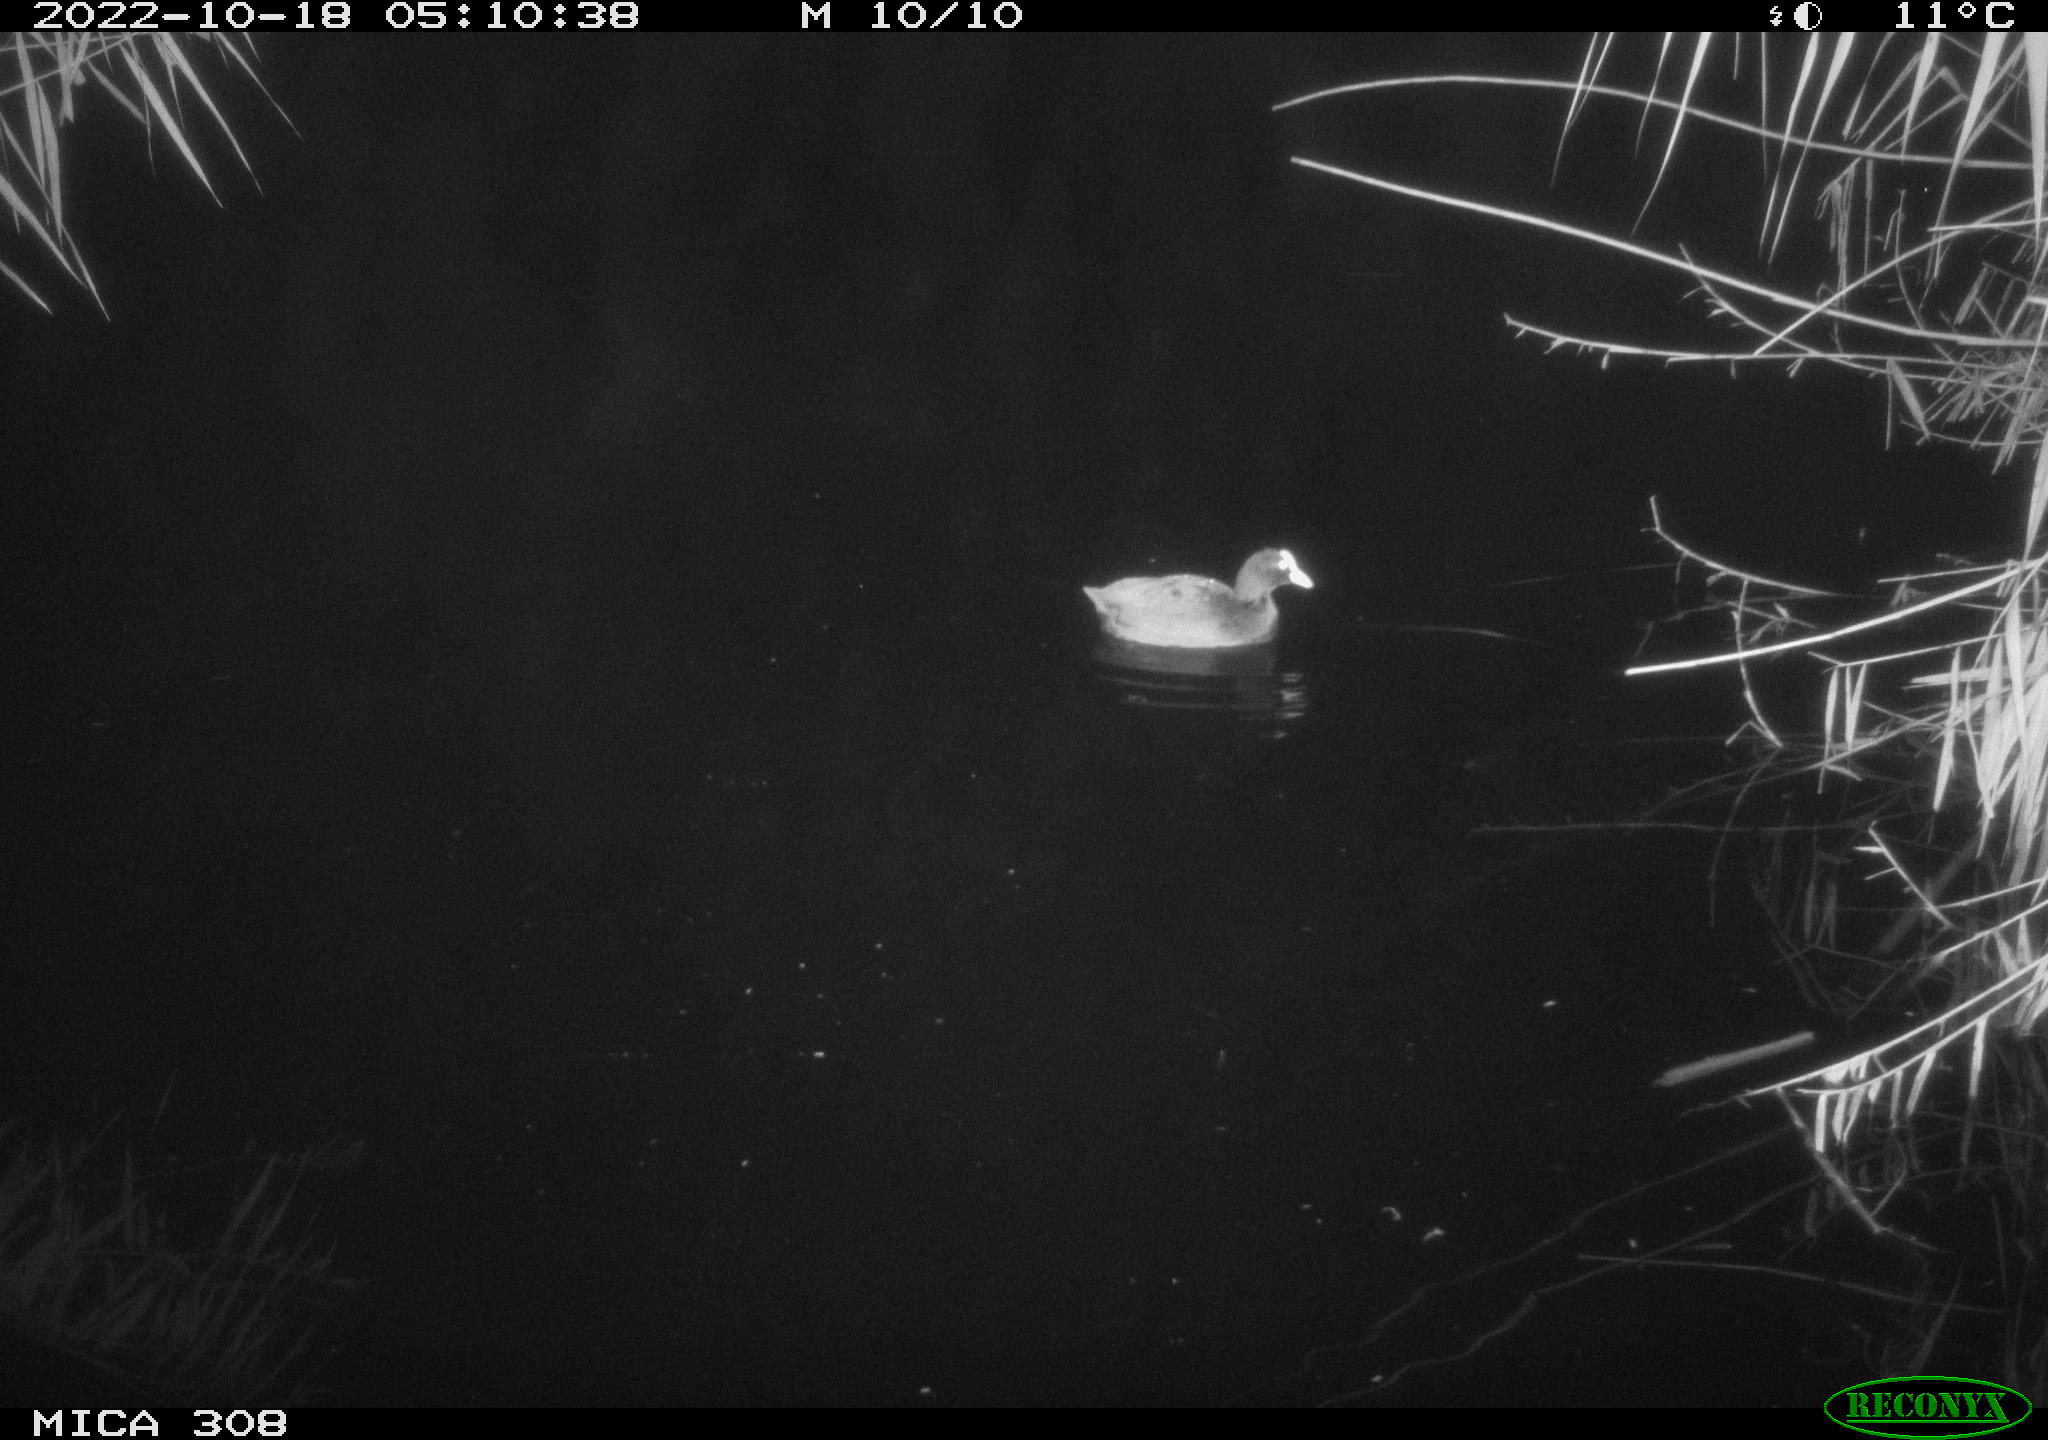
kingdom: Animalia
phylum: Chordata
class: Aves
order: Anseriformes
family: Anatidae
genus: Anas
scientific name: Anas
